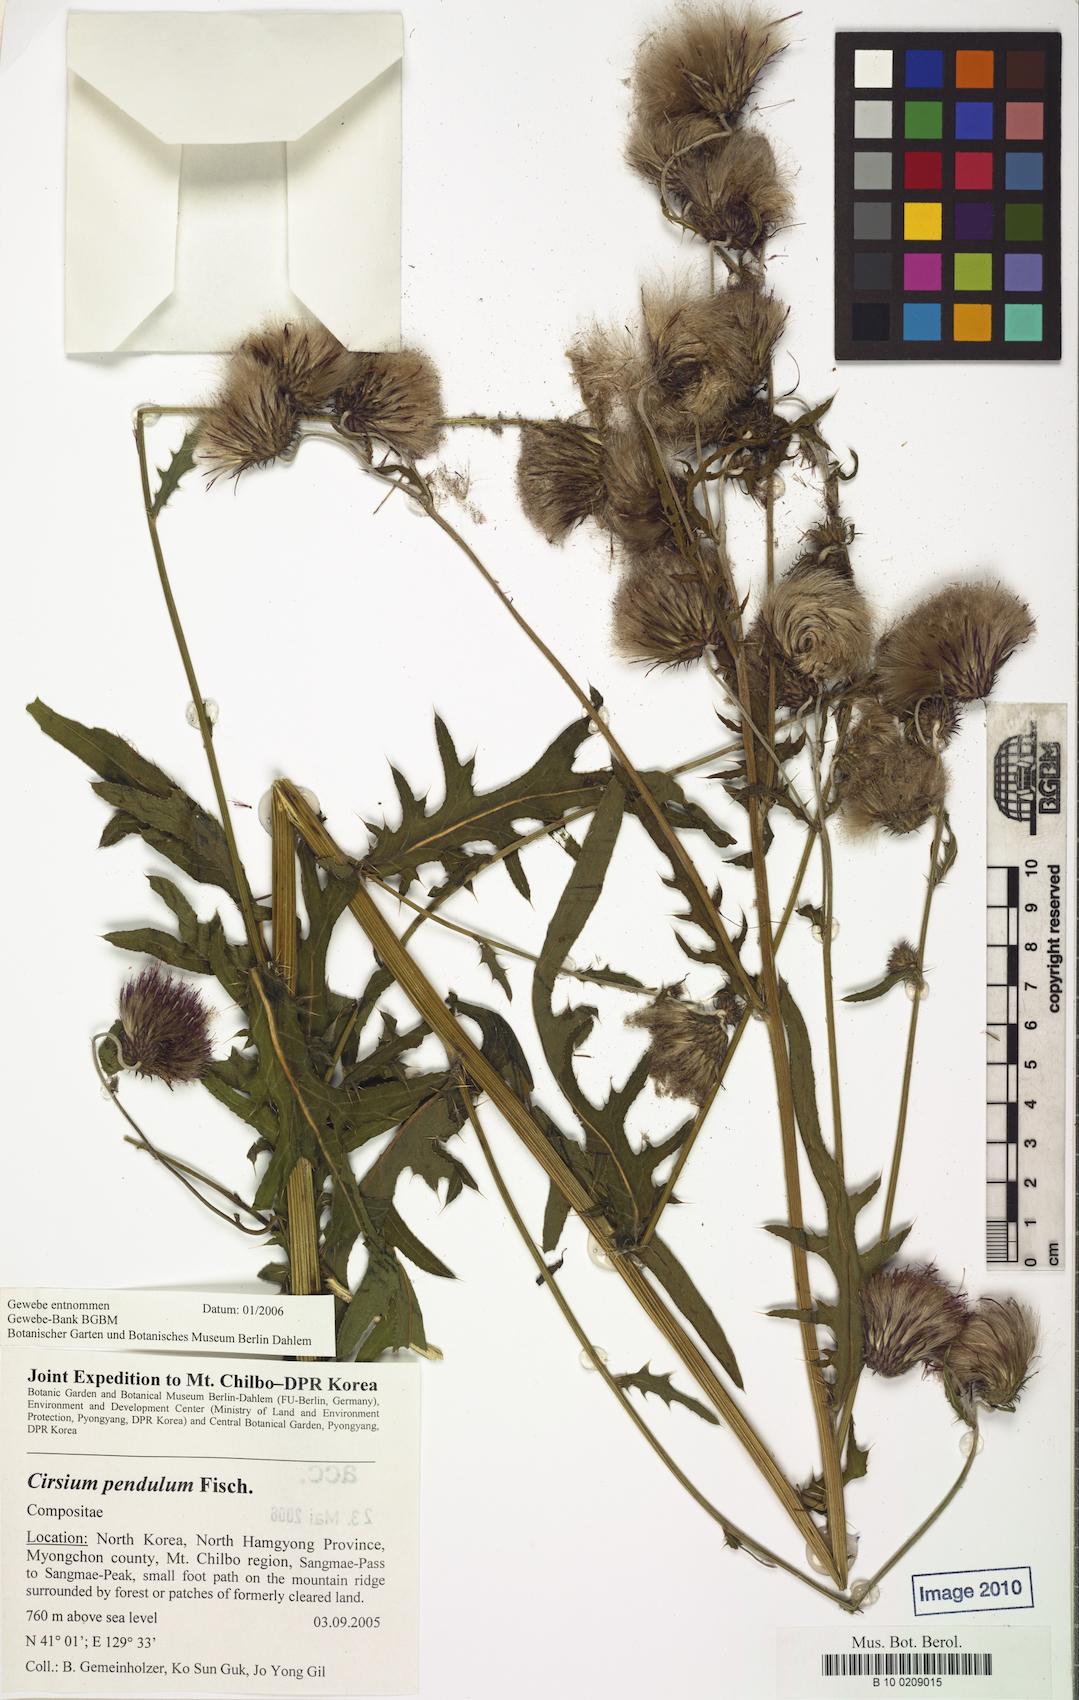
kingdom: Plantae
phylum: Tracheophyta
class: Magnoliopsida
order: Asterales
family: Asteraceae
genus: Cirsium
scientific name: Cirsium pendulum
